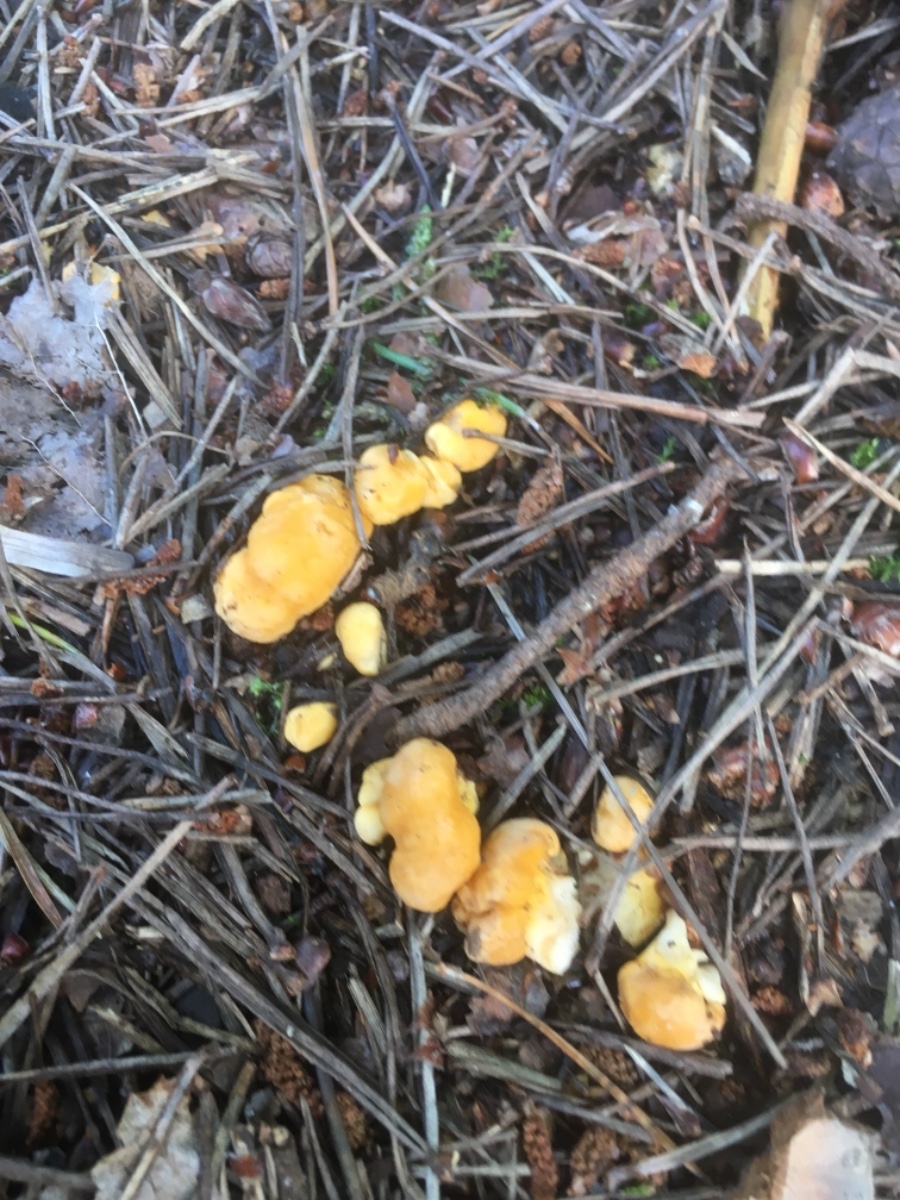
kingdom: Fungi
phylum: Basidiomycota
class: Agaricomycetes
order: Cantharellales
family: Hydnaceae
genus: Cantharellus
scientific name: Cantharellus cibarius
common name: almindelig kantarel
